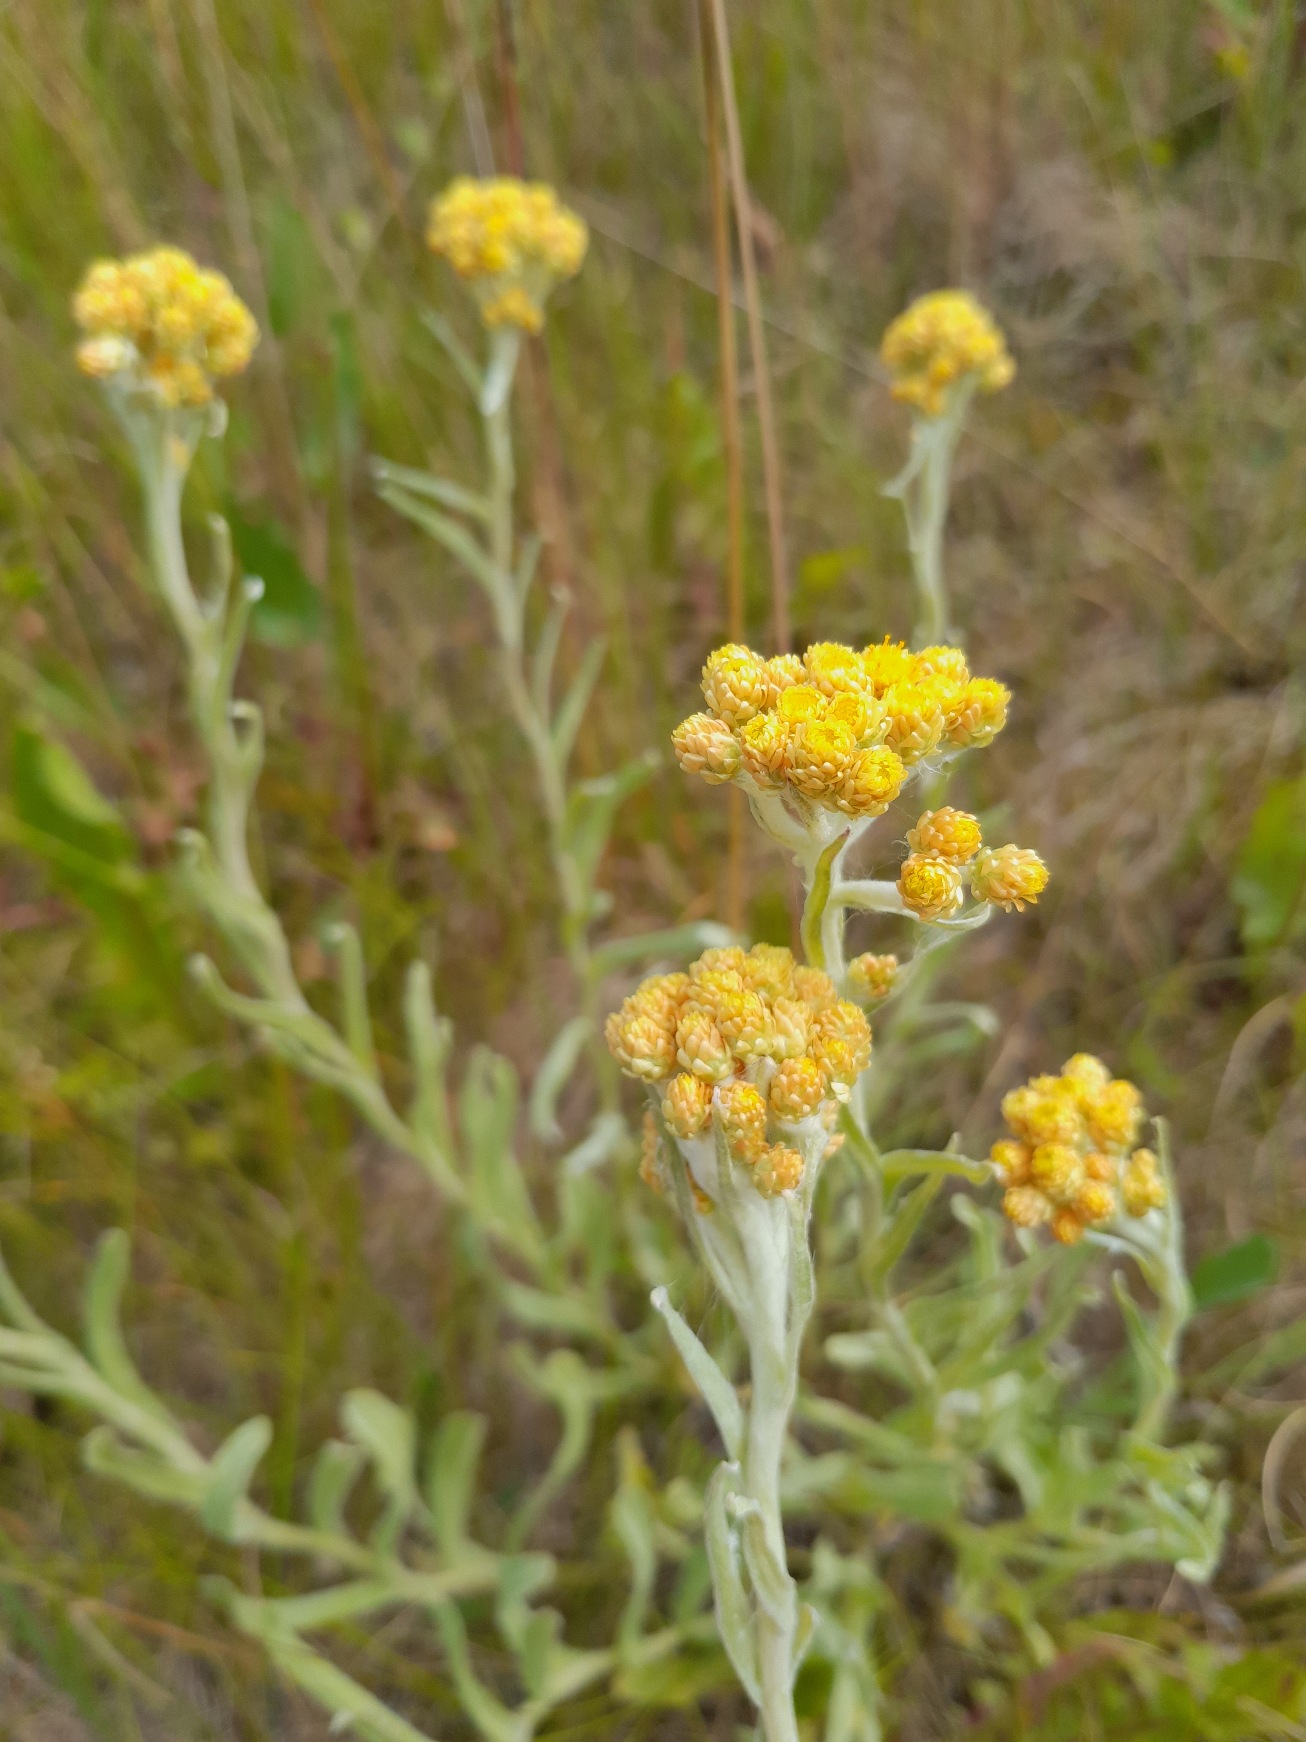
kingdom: Plantae
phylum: Tracheophyta
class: Magnoliopsida
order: Asterales
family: Asteraceae
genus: Helichrysum
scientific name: Helichrysum arenarium
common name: Gul evighedsblomst
